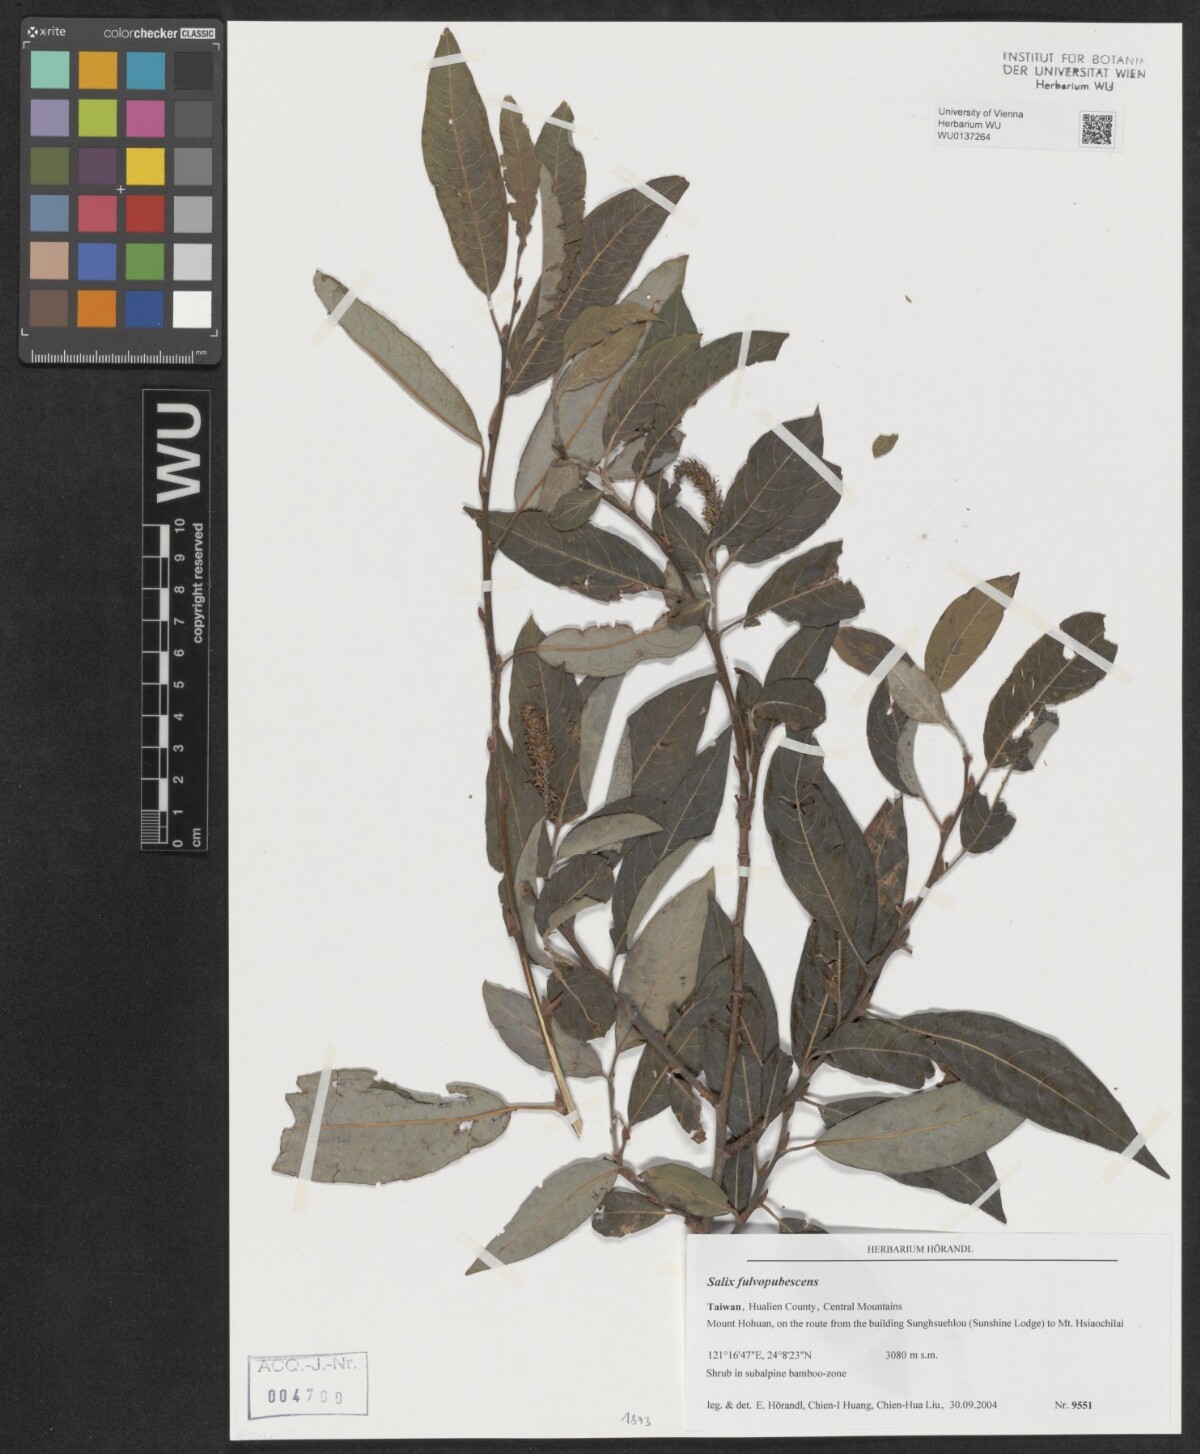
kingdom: Plantae
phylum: Tracheophyta
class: Magnoliopsida
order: Malpighiales
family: Salicaceae
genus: Salix
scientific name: Salix fulvopubescens
